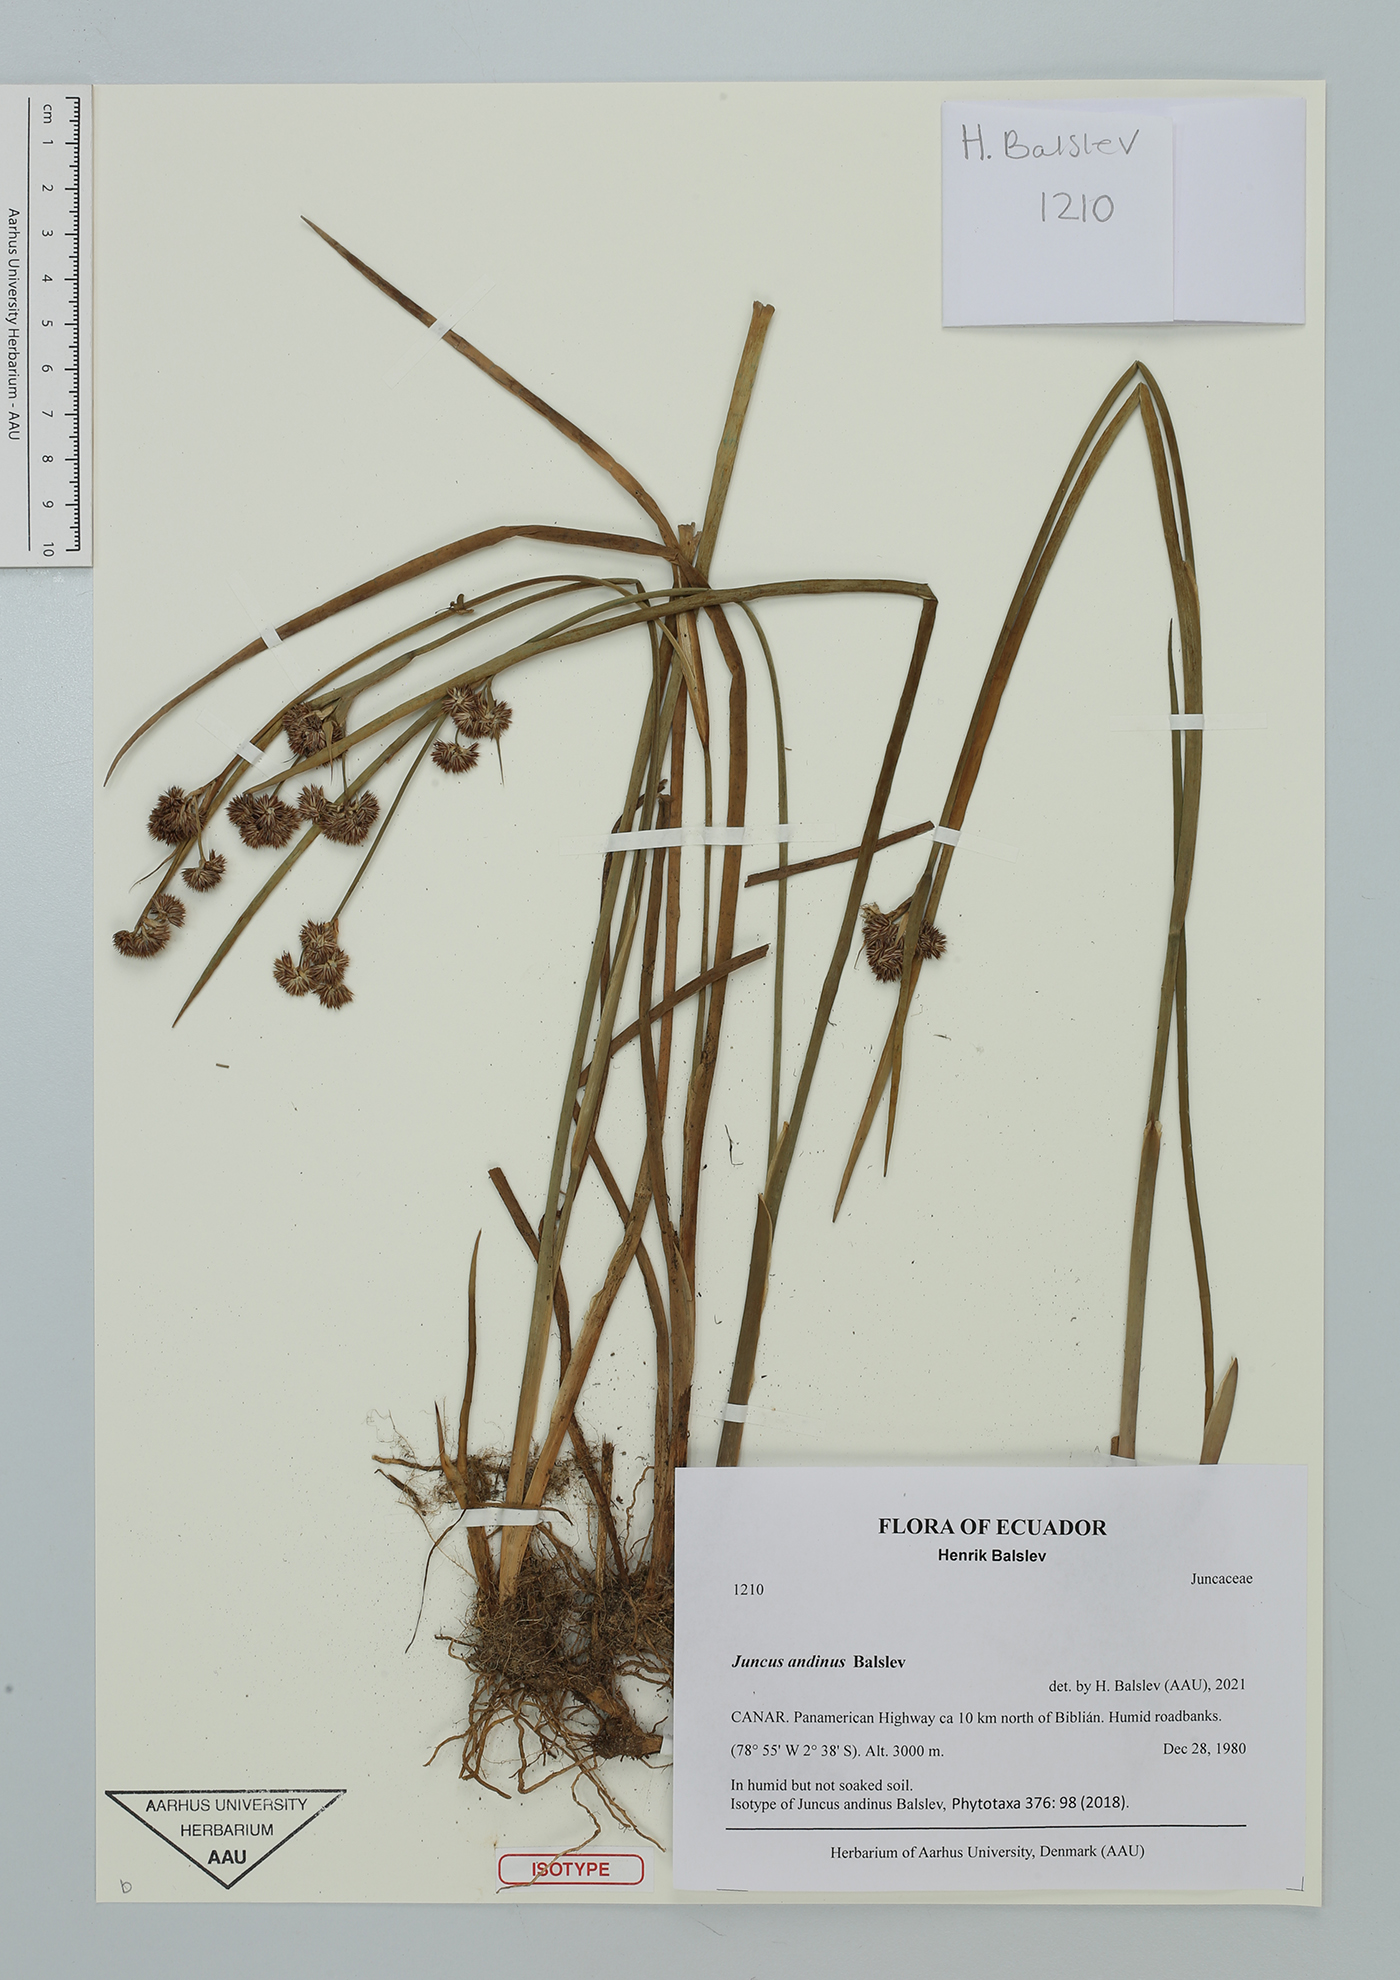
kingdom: Plantae
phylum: Tracheophyta
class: Liliopsida
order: Poales
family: Juncaceae
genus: Juncus
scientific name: Juncus andinus
